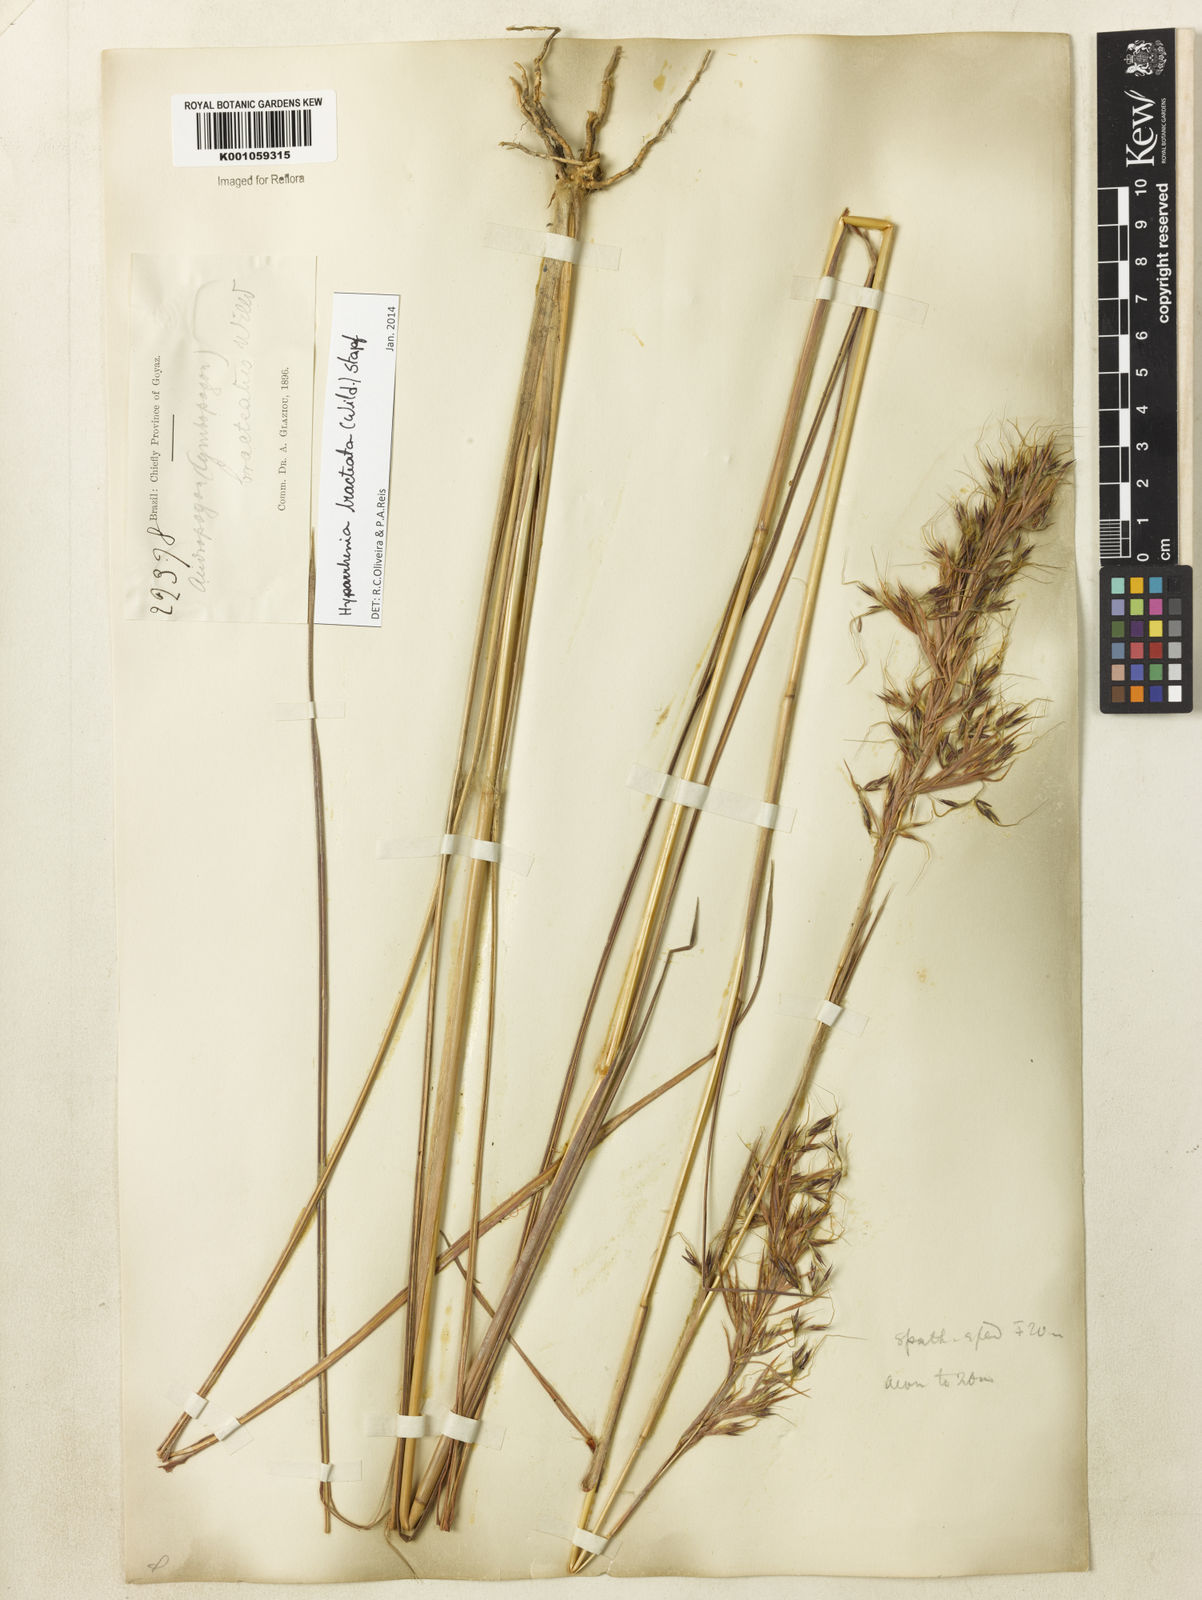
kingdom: Plantae
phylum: Tracheophyta
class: Liliopsida
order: Poales
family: Poaceae
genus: Hyparrhenia
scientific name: Hyparrhenia bracteata
